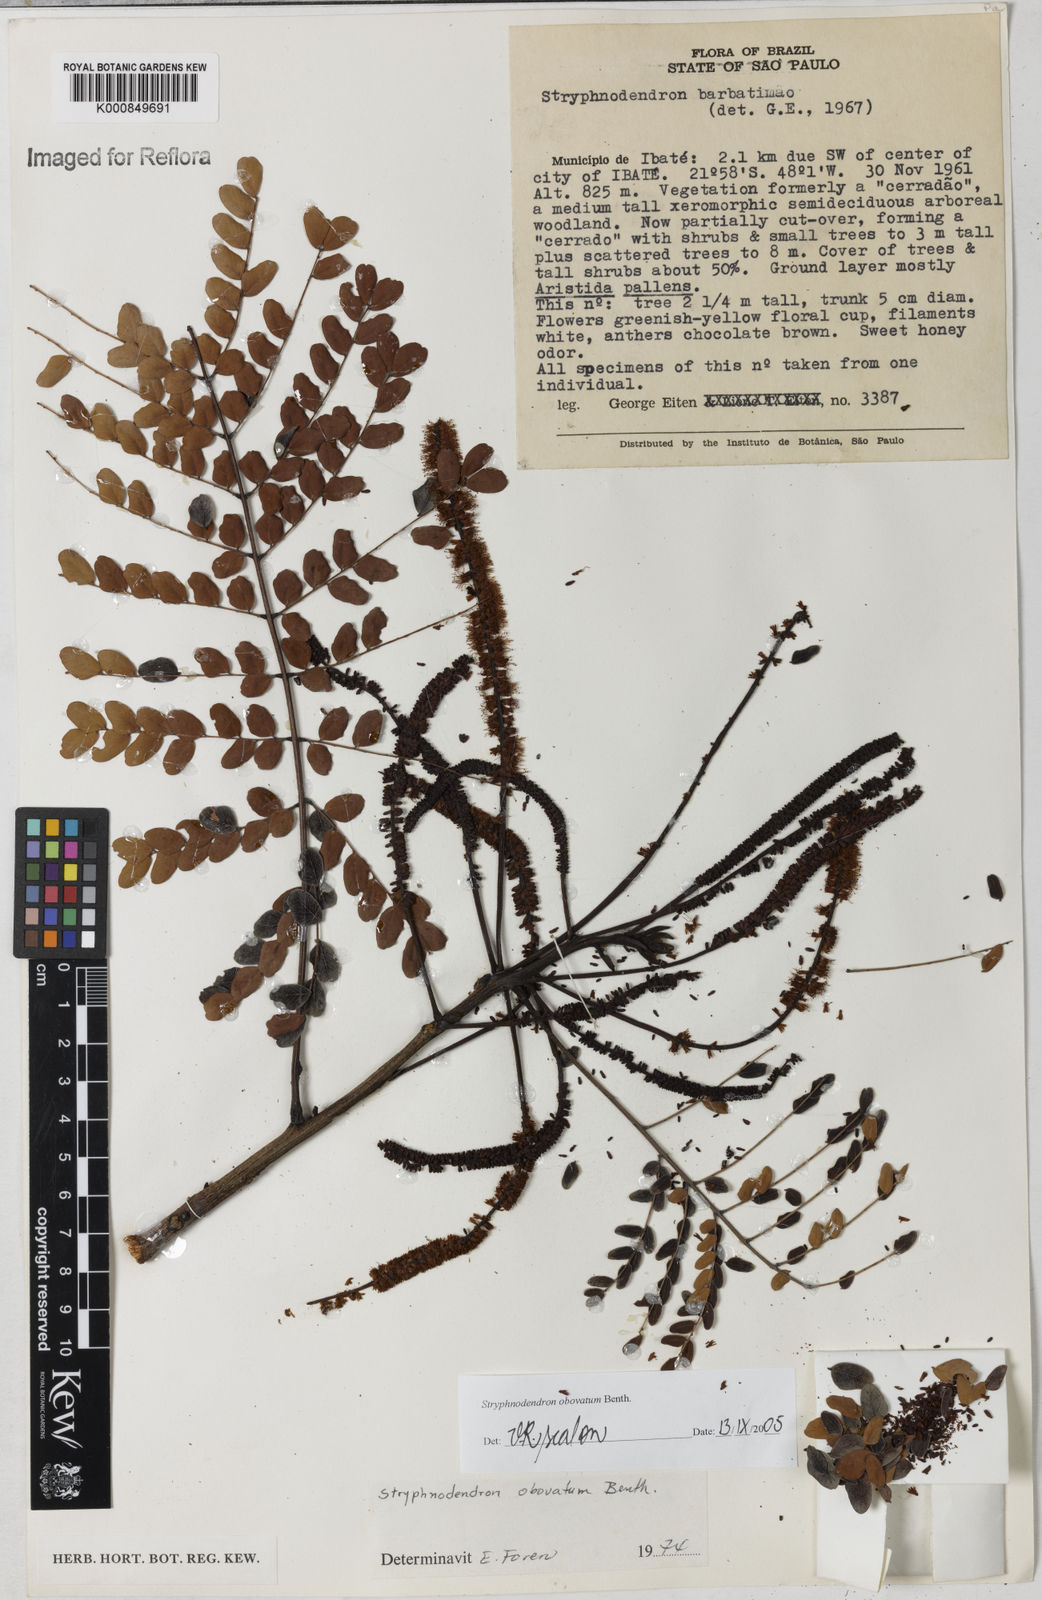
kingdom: Plantae
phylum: Tracheophyta
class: Magnoliopsida
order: Fabales
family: Fabaceae
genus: Stryphnodendron
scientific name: Stryphnodendron rotundifolium
